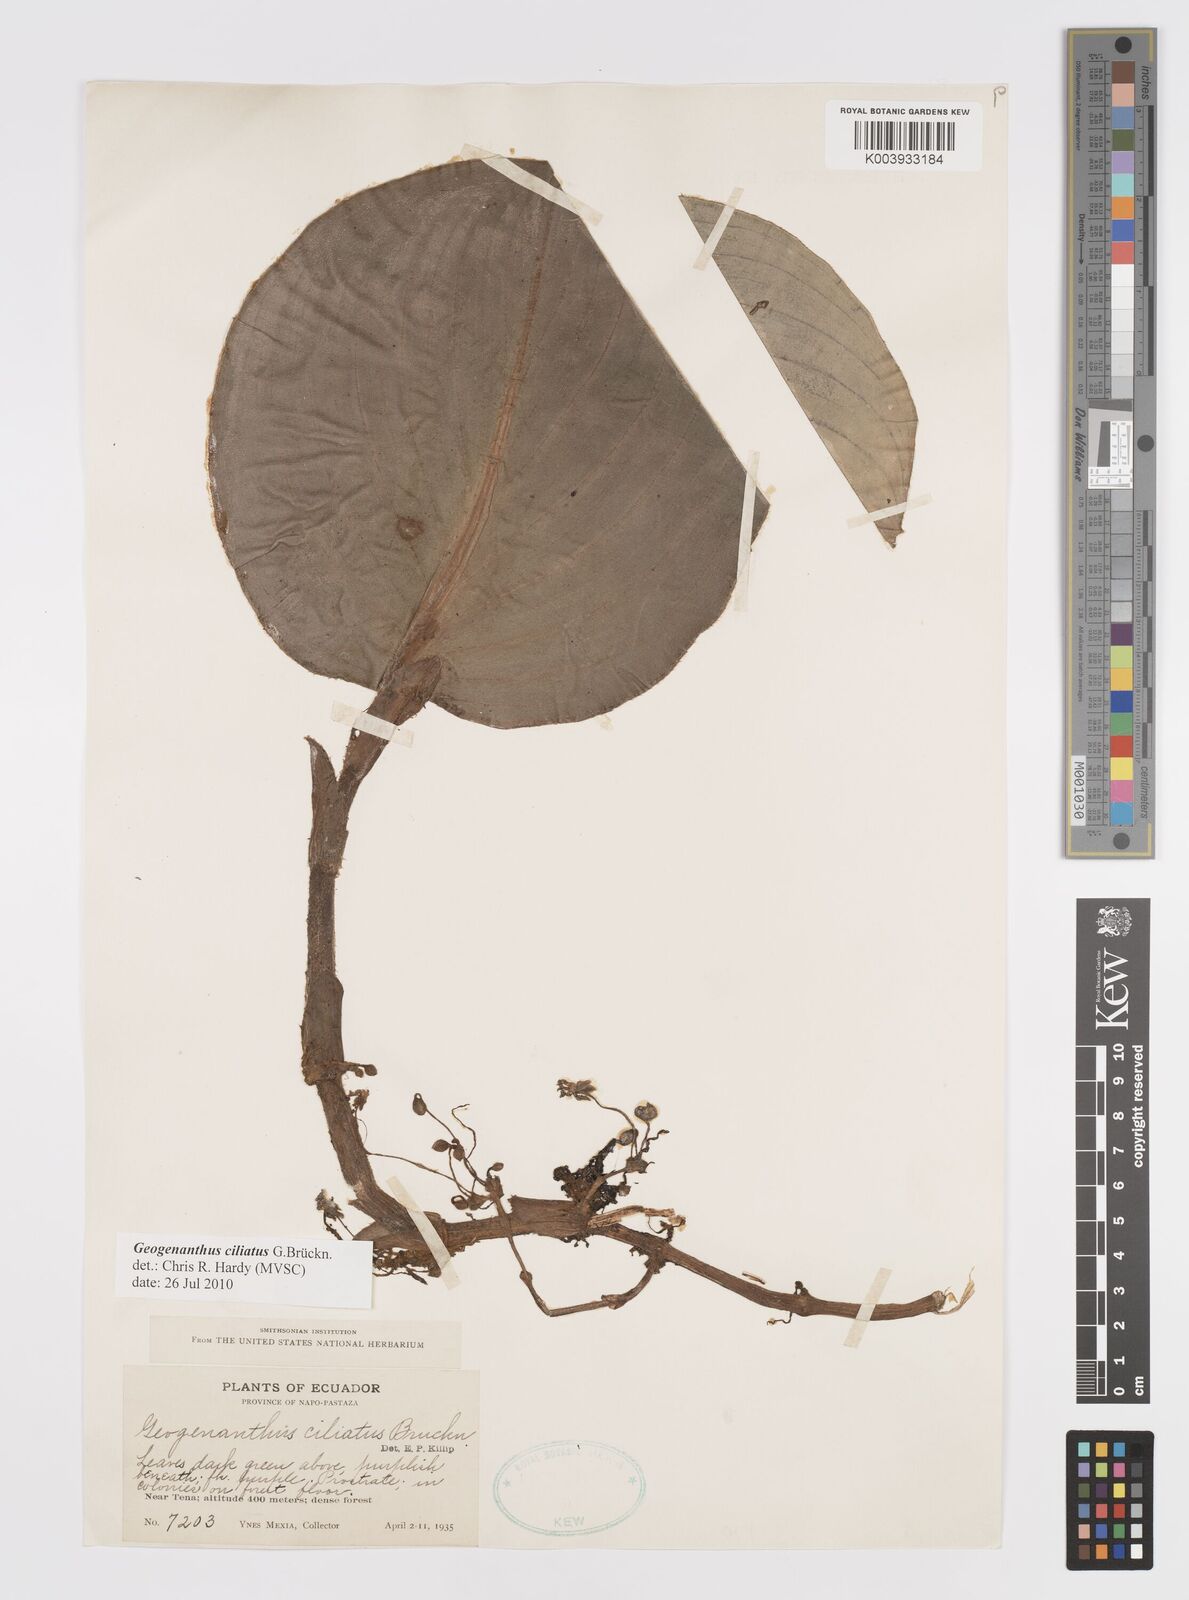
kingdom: Plantae
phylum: Tracheophyta
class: Liliopsida
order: Commelinales
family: Commelinaceae
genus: Geogenanthus
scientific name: Geogenanthus ciliatus
